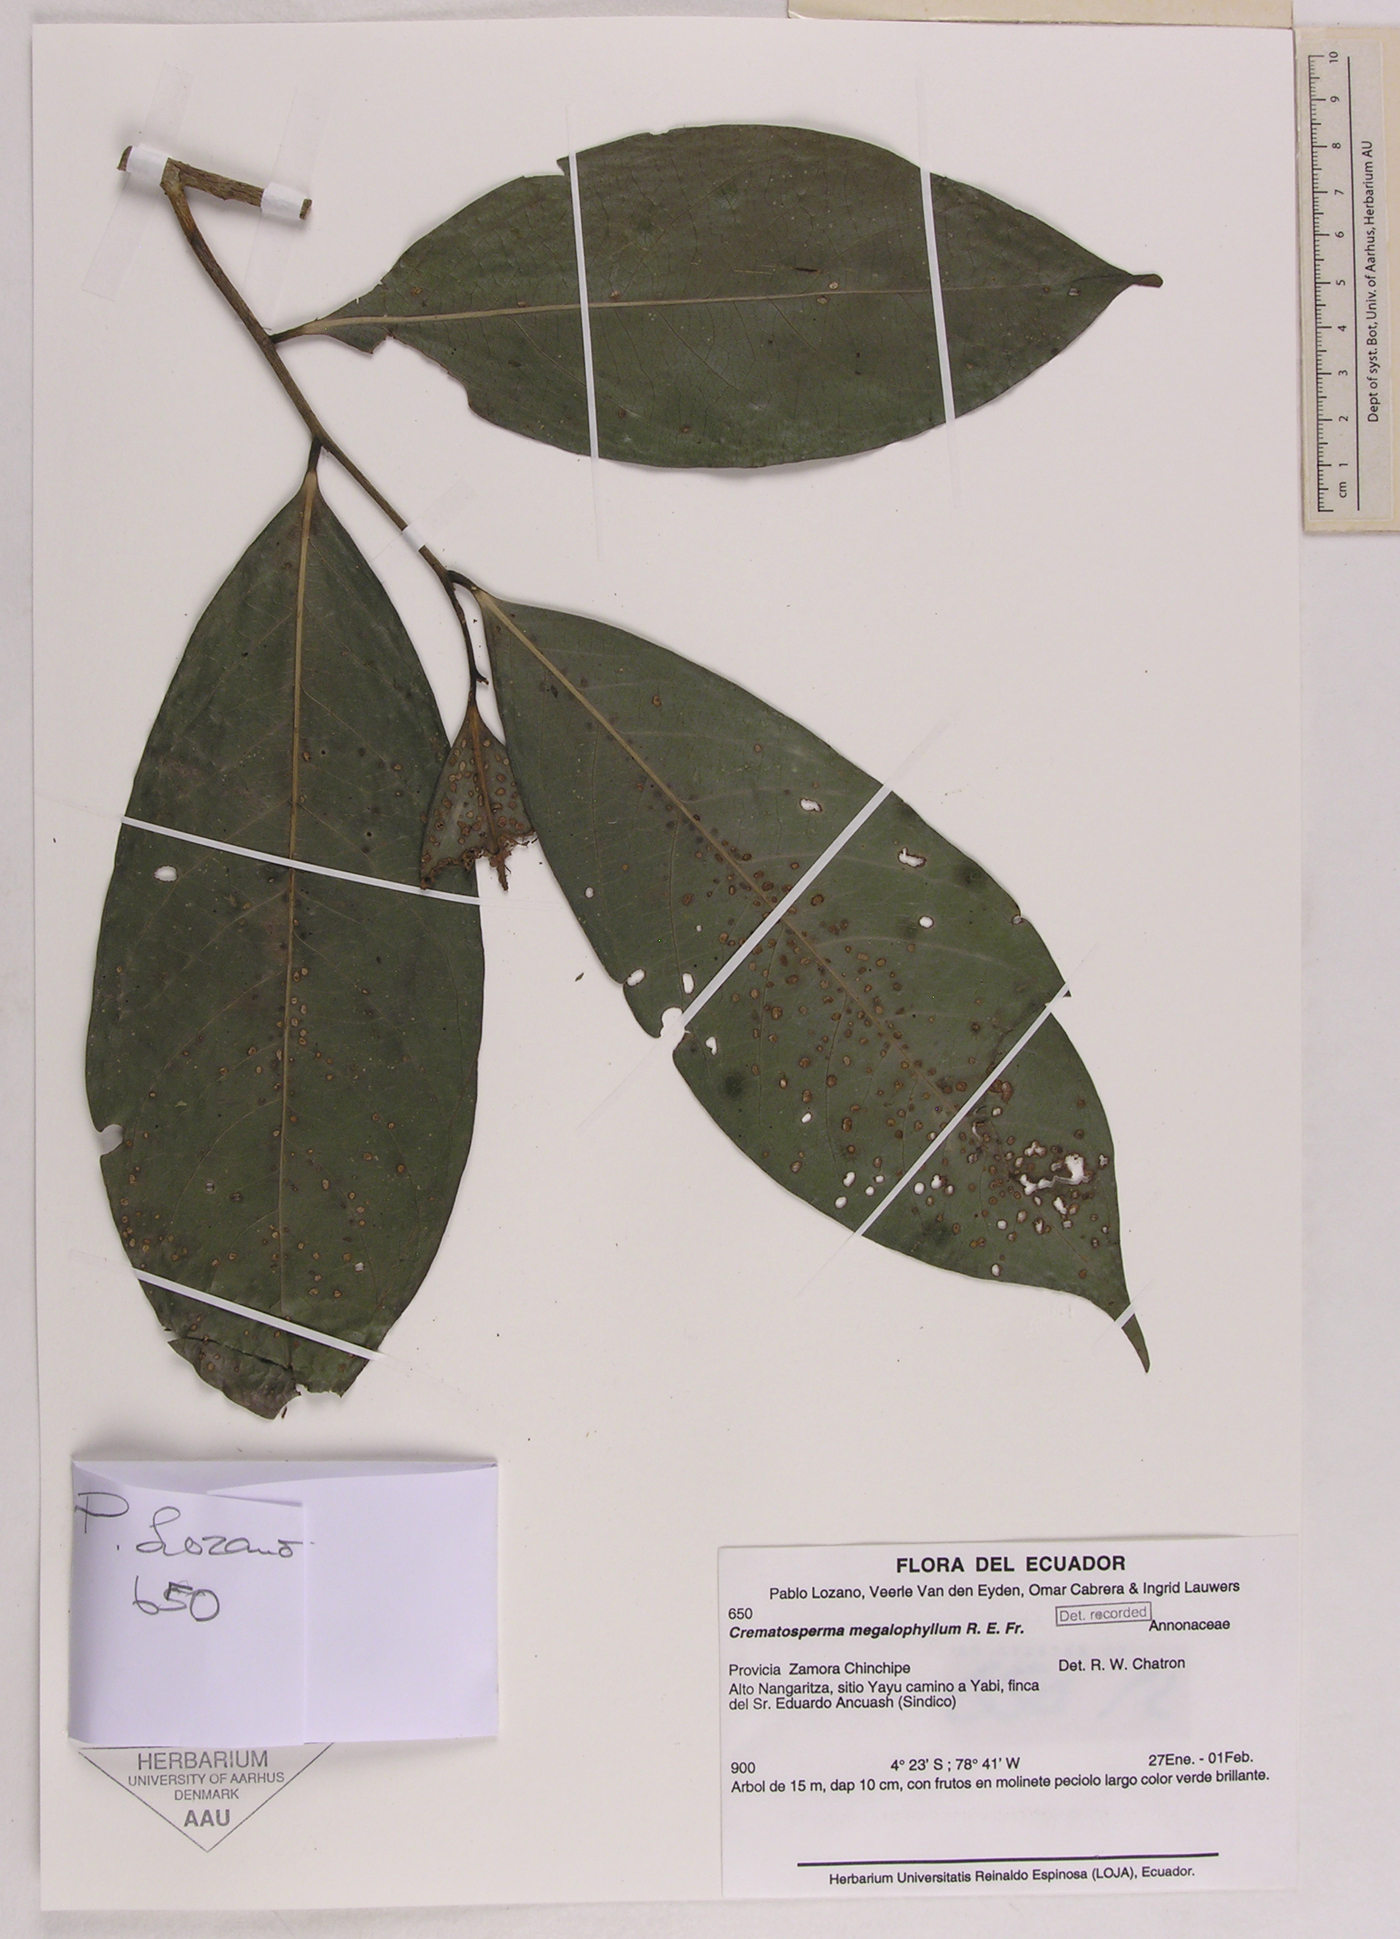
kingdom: Plantae
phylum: Tracheophyta
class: Magnoliopsida
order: Magnoliales
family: Annonaceae
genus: Cremastosperma
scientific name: Cremastosperma megalophyllum
